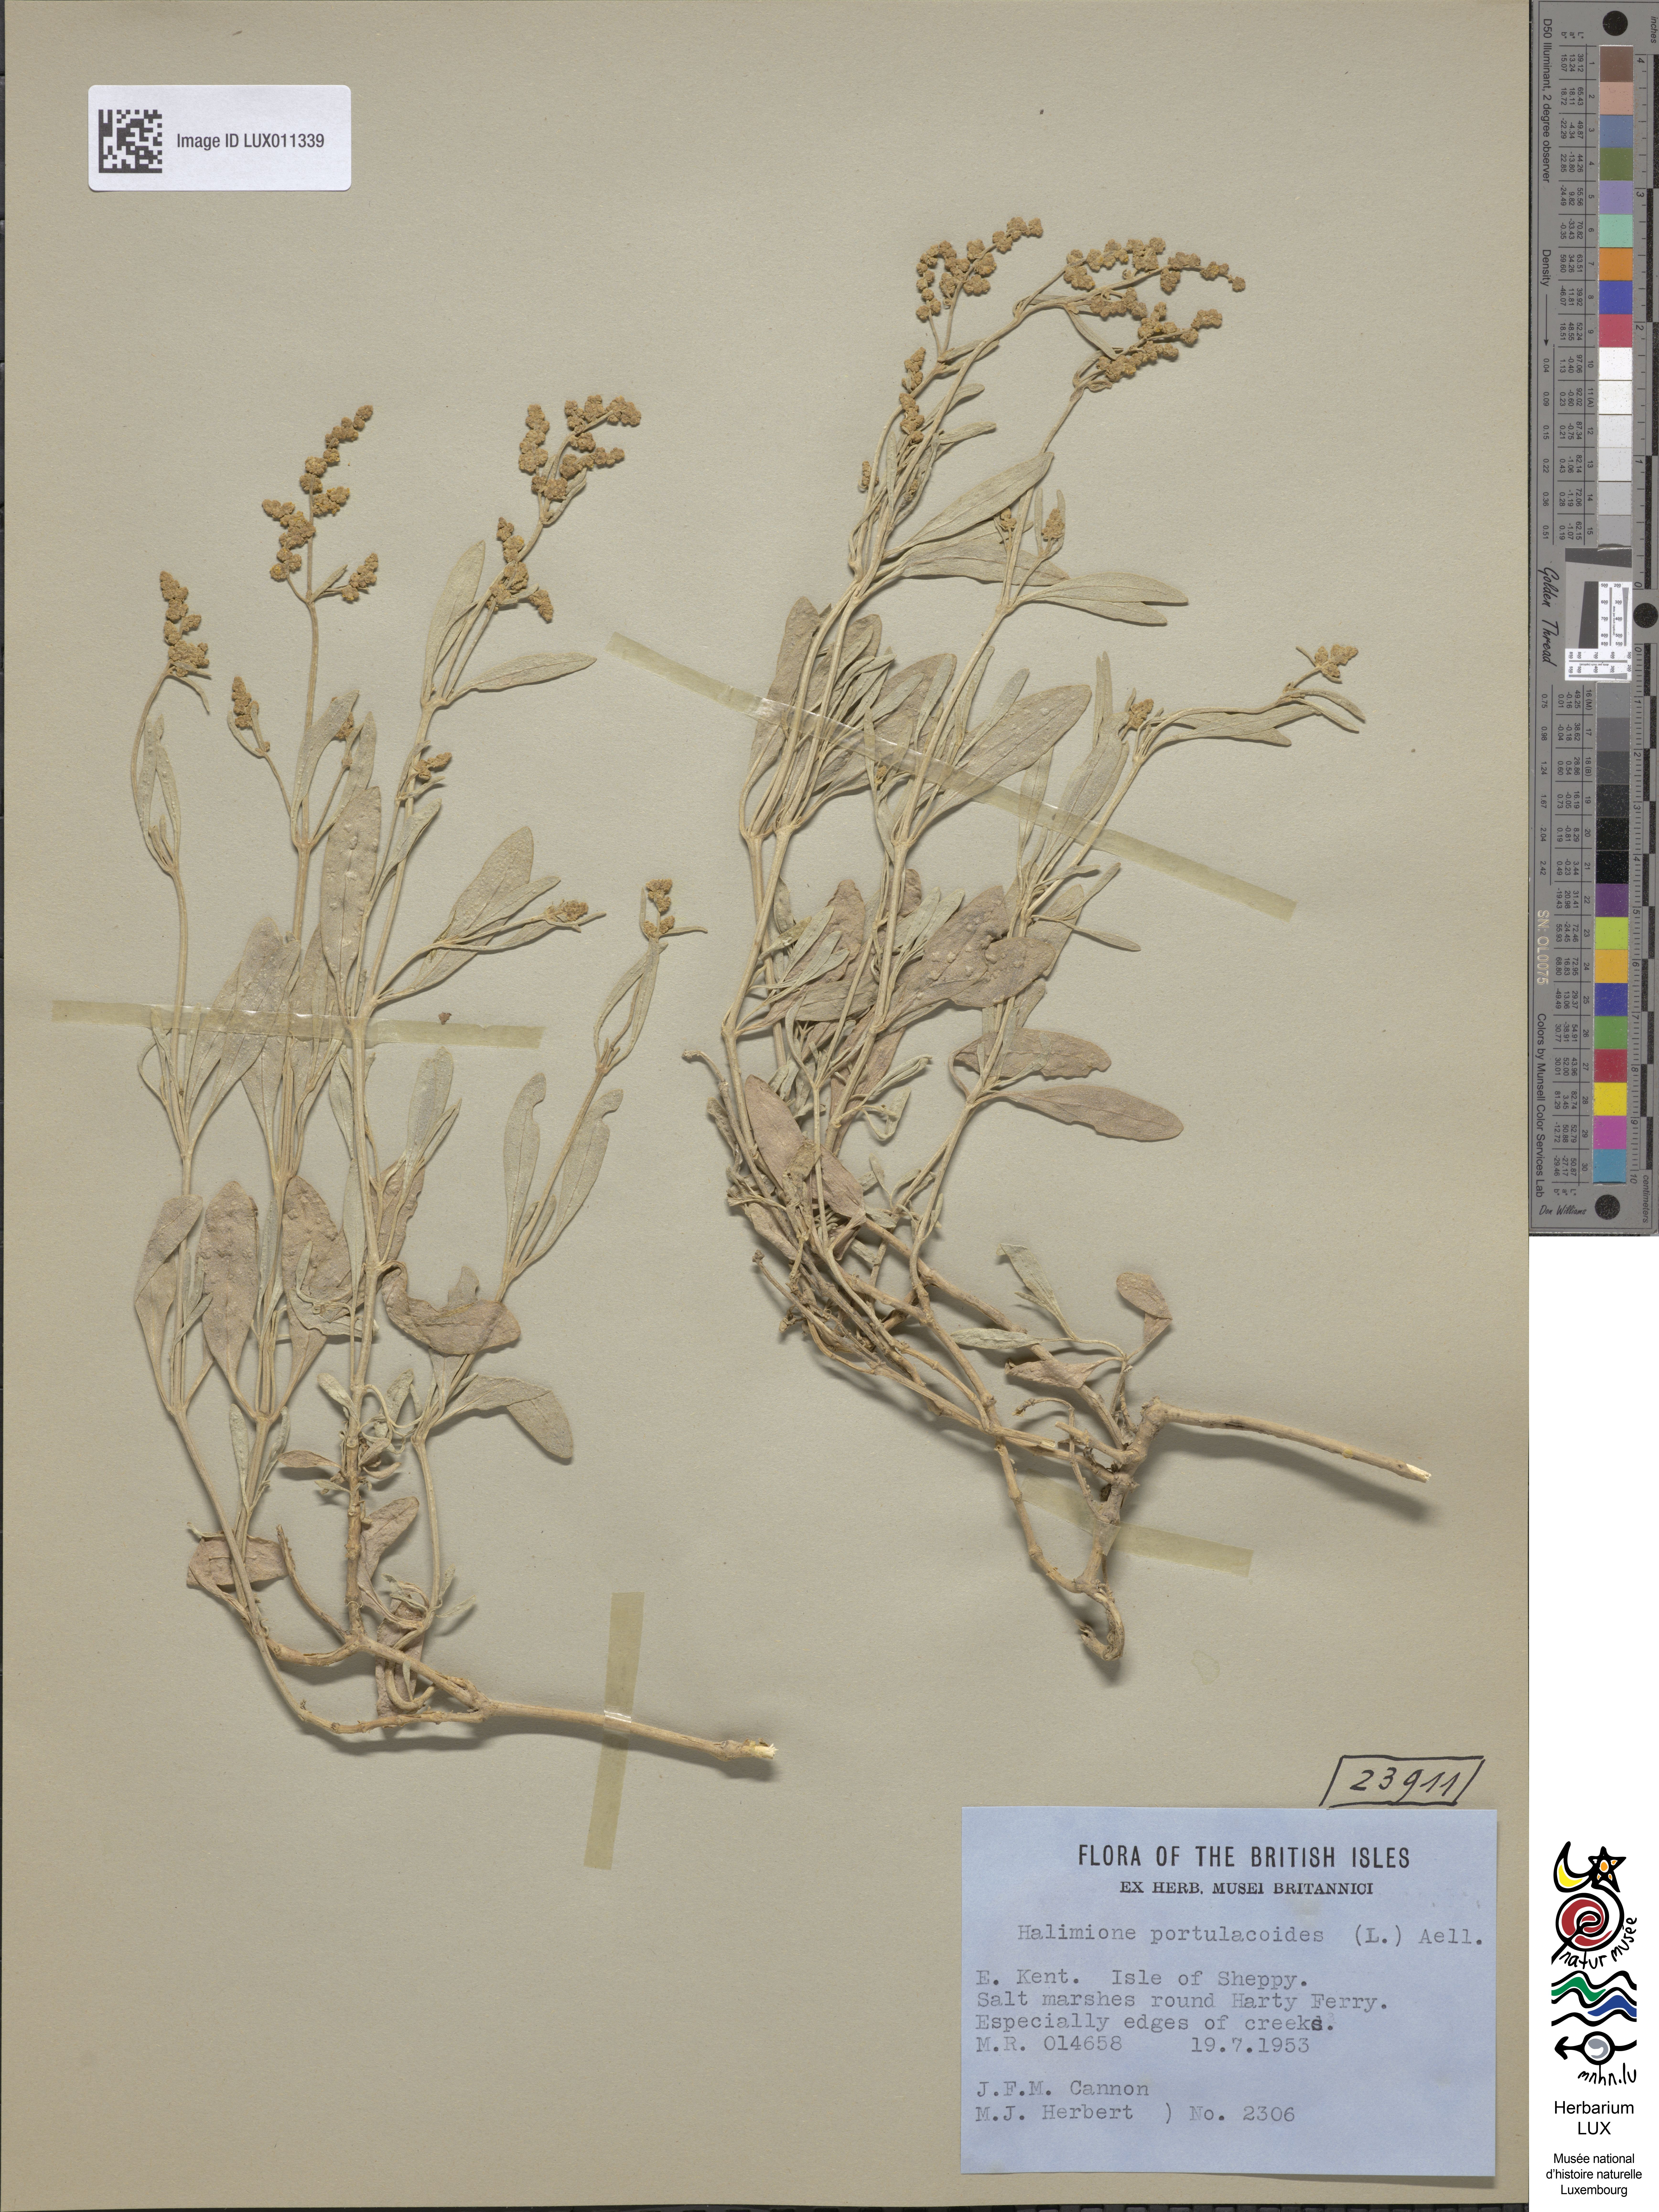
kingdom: Plantae
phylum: Tracheophyta
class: Magnoliopsida
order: Caryophyllales
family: Amaranthaceae
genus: Halimione
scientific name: Halimione portulacoides
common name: Sea-purslane
